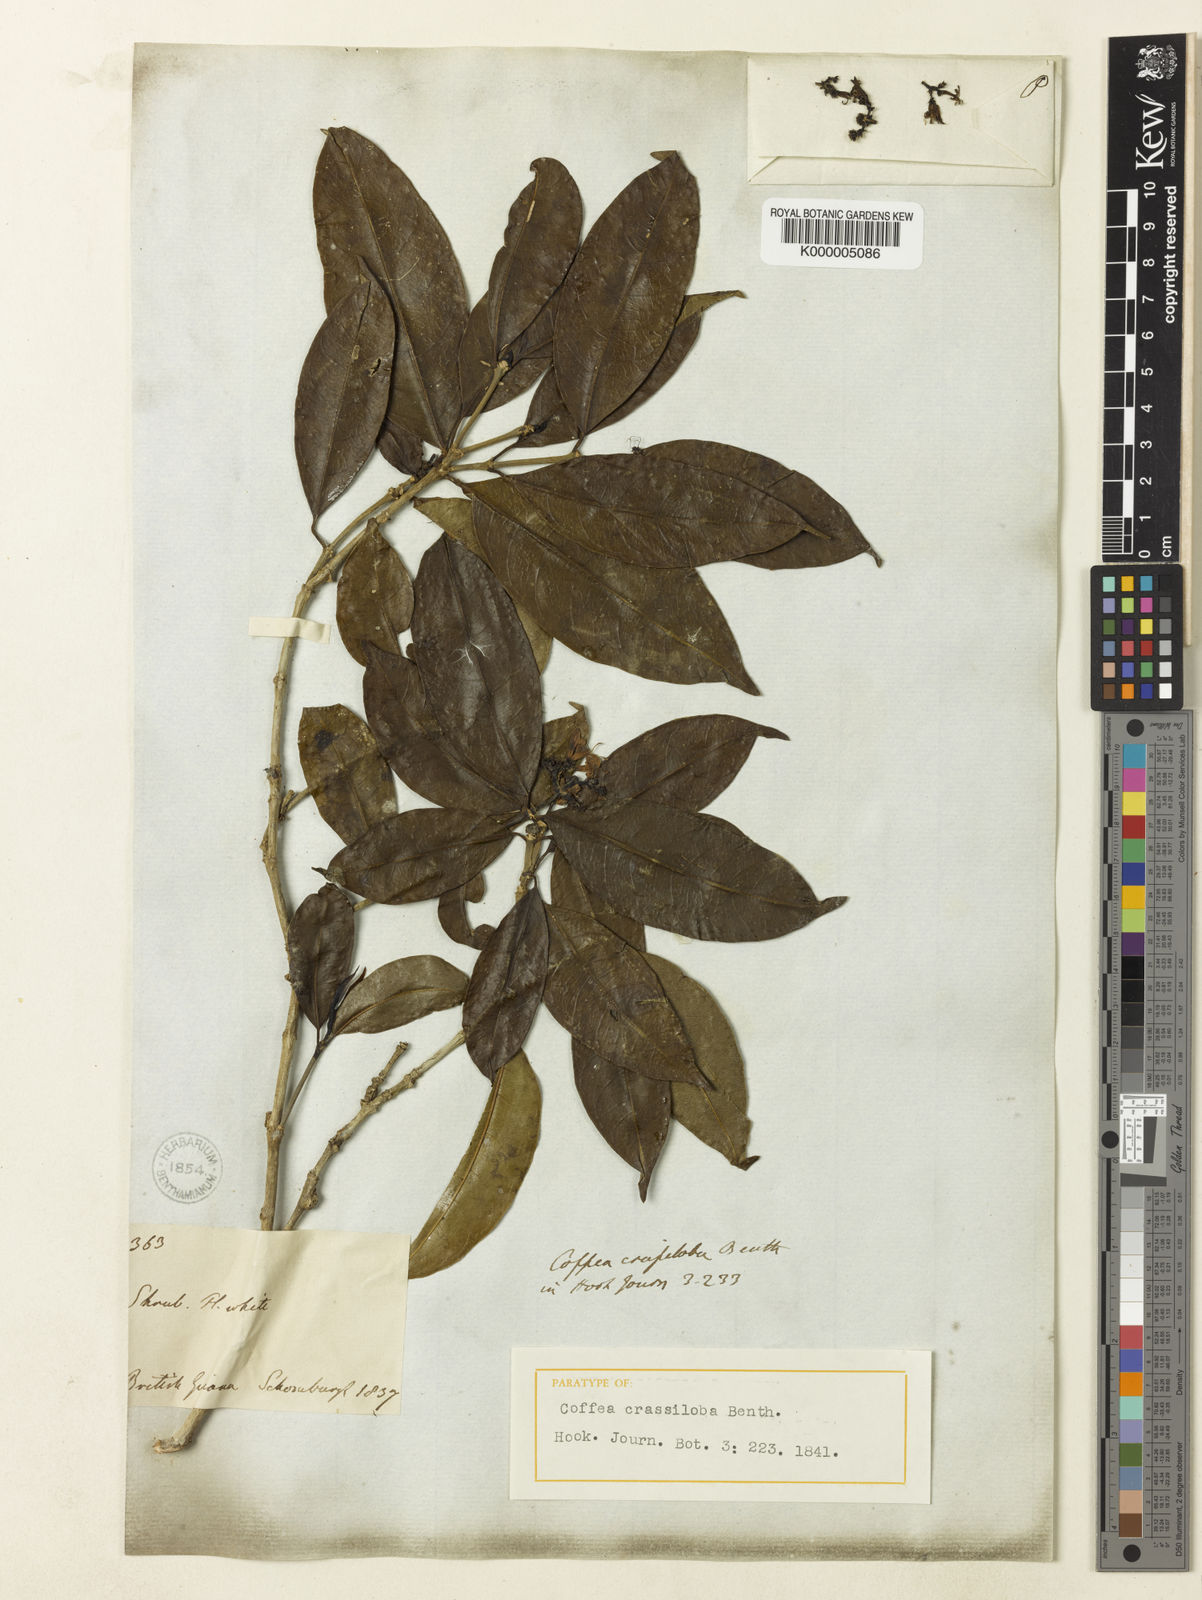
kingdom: Plantae
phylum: Tracheophyta
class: Magnoliopsida
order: Gentianales
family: Rubiaceae
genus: Rudgea
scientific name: Rudgea crassiloba
